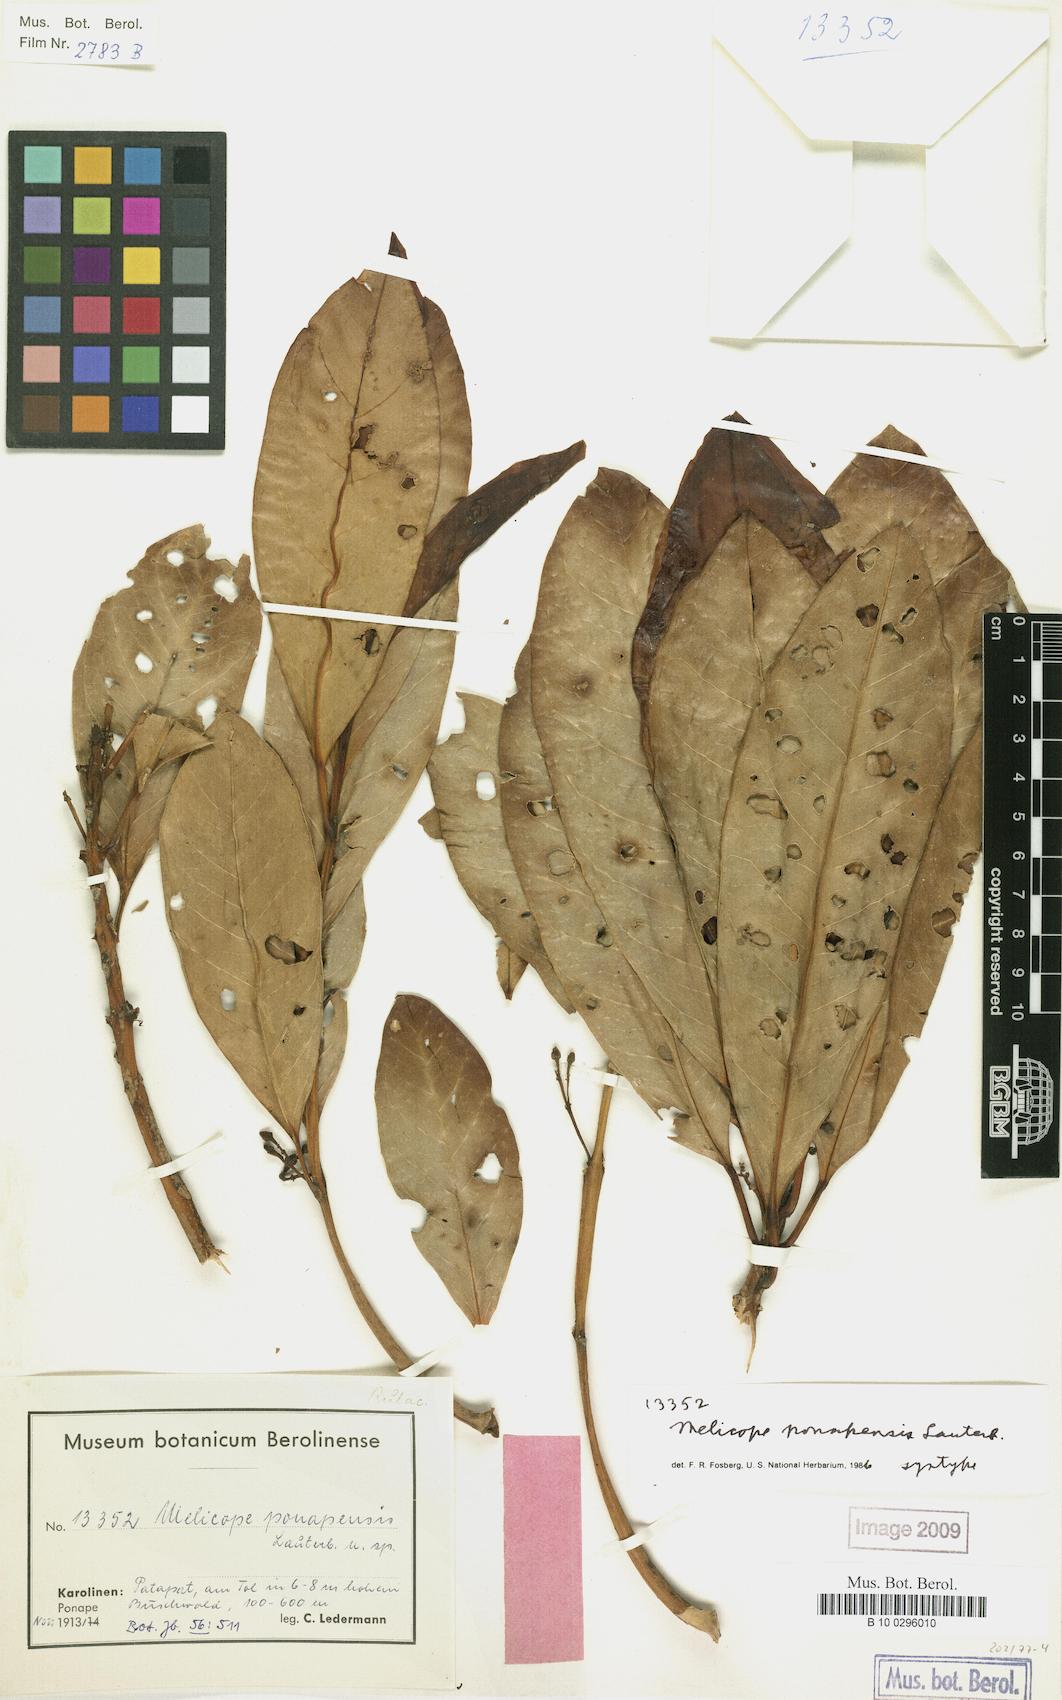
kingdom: Plantae
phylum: Tracheophyta
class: Magnoliopsida
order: Sapindales
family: Rutaceae
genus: Melicope
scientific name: Melicope ponapensis
